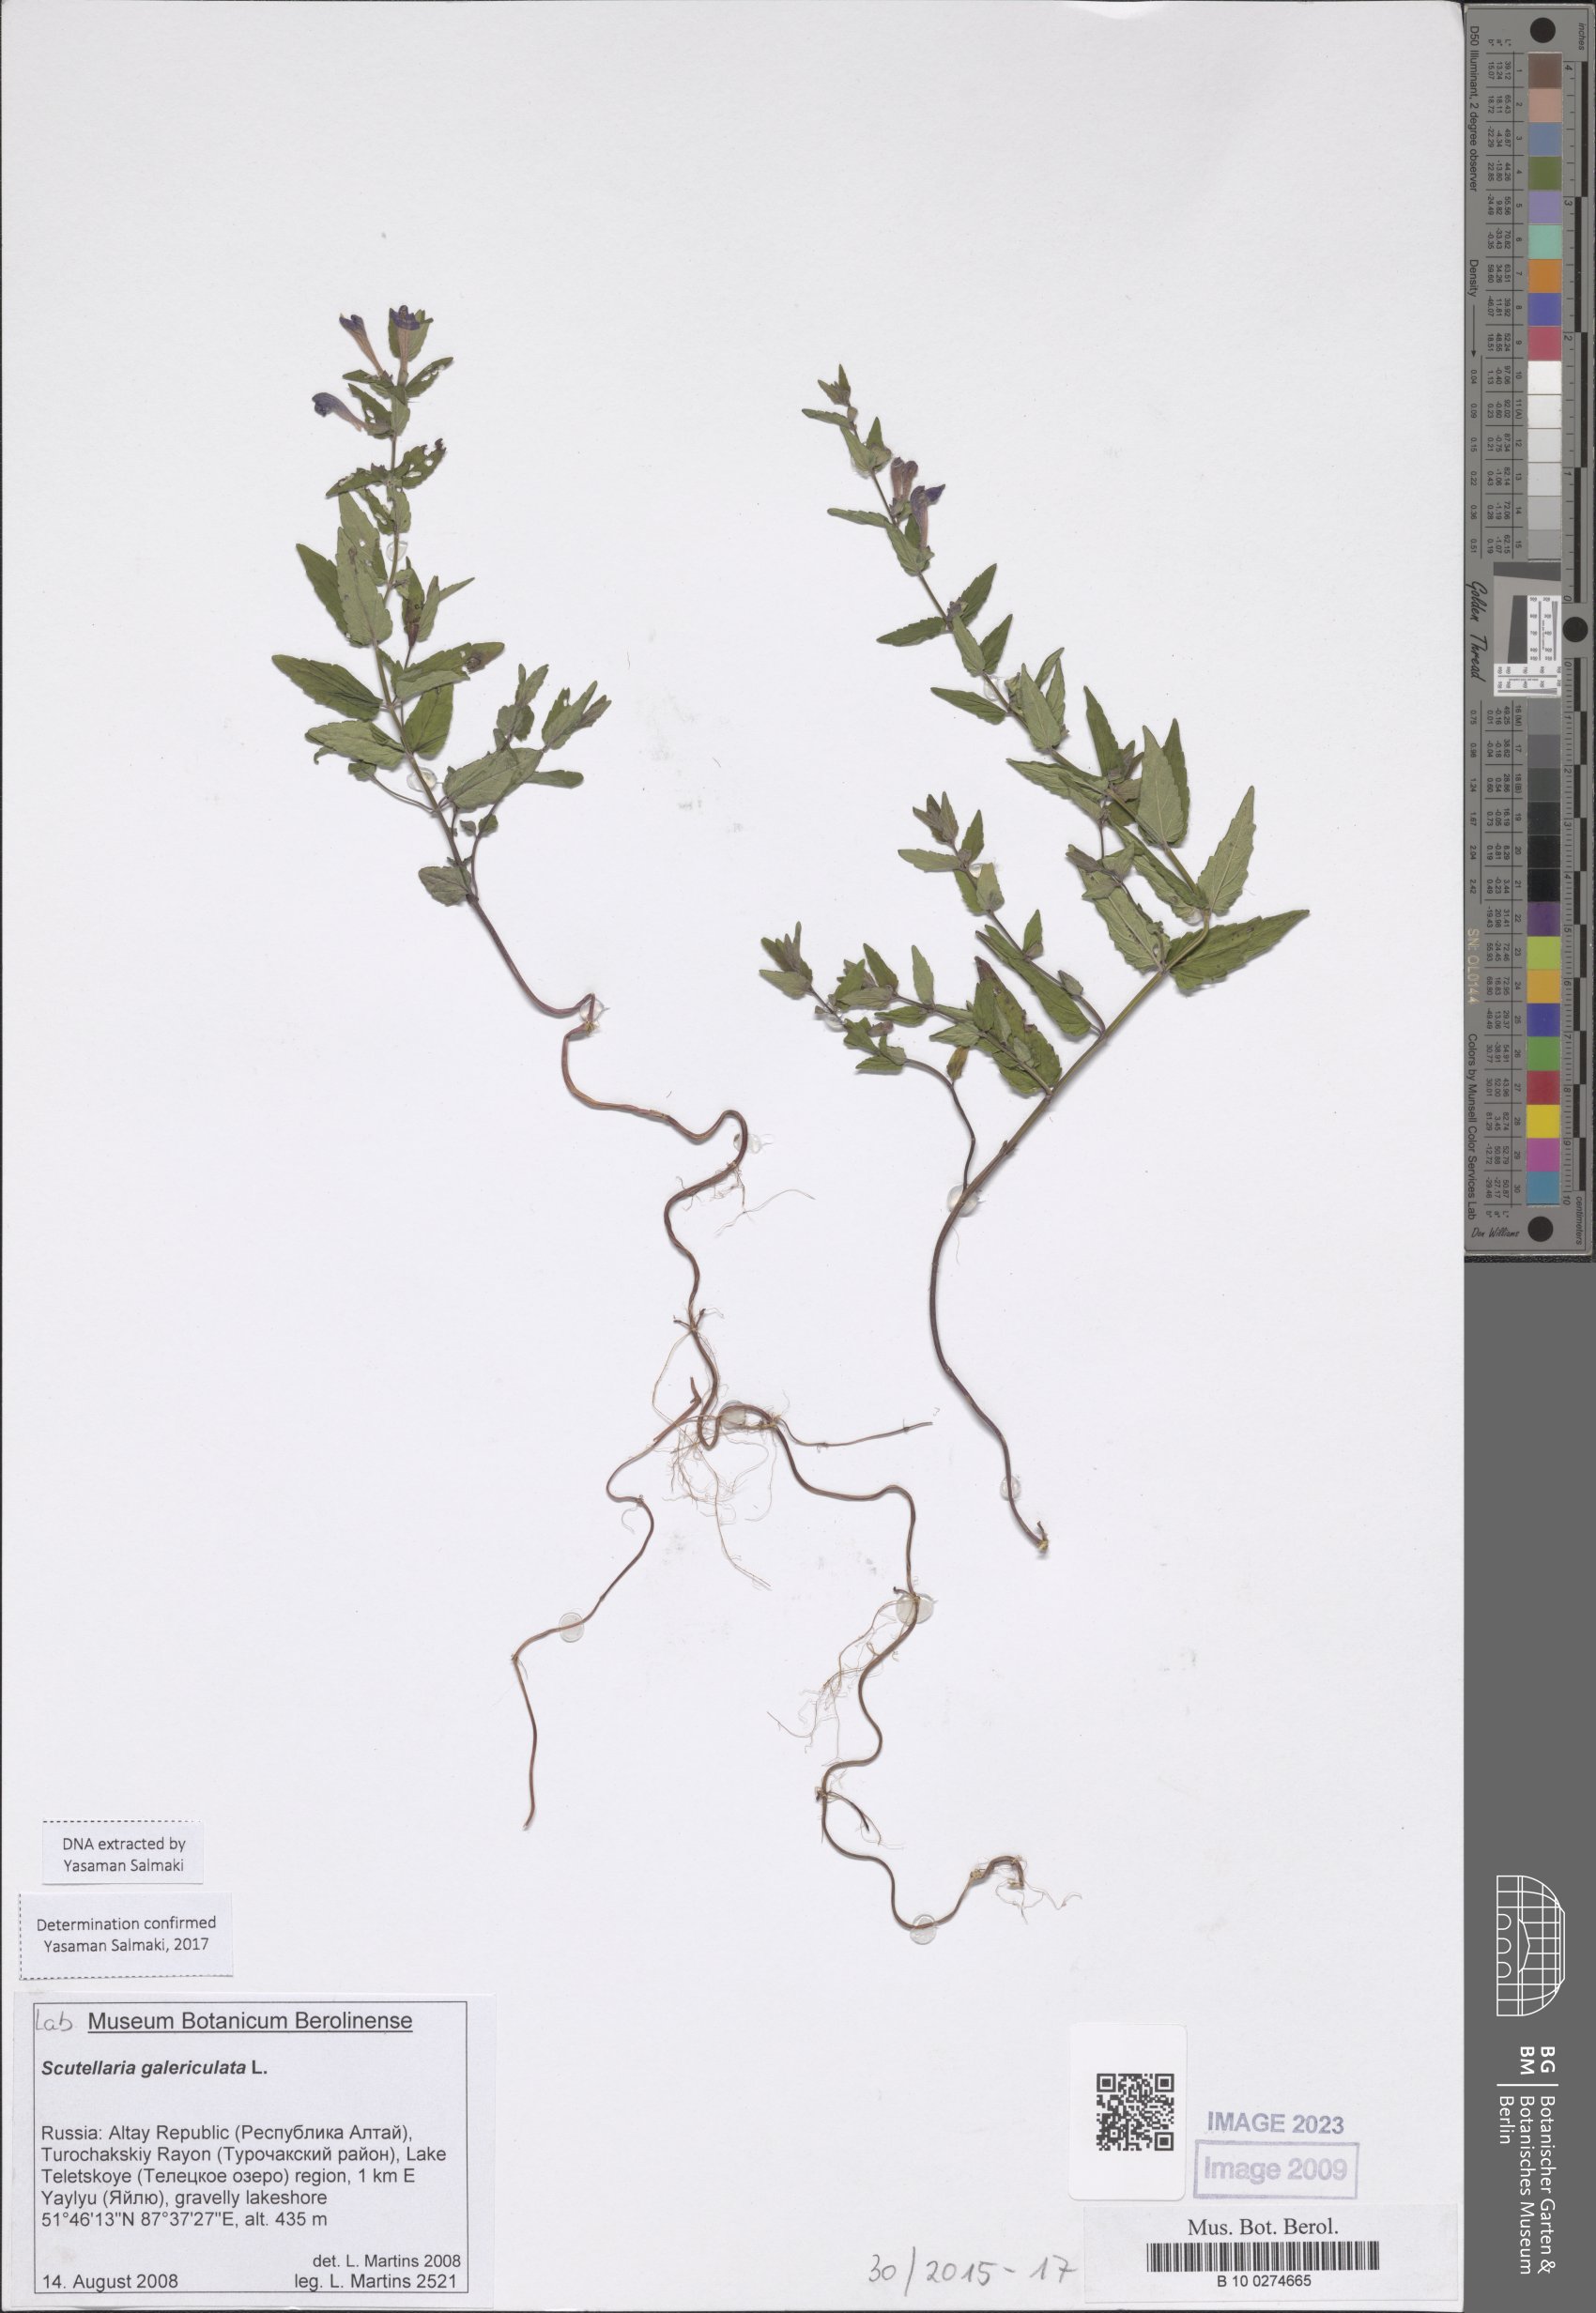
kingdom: Plantae
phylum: Tracheophyta
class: Magnoliopsida
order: Lamiales
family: Lamiaceae
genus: Scutellaria
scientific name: Scutellaria galericulata
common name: Skullcap
